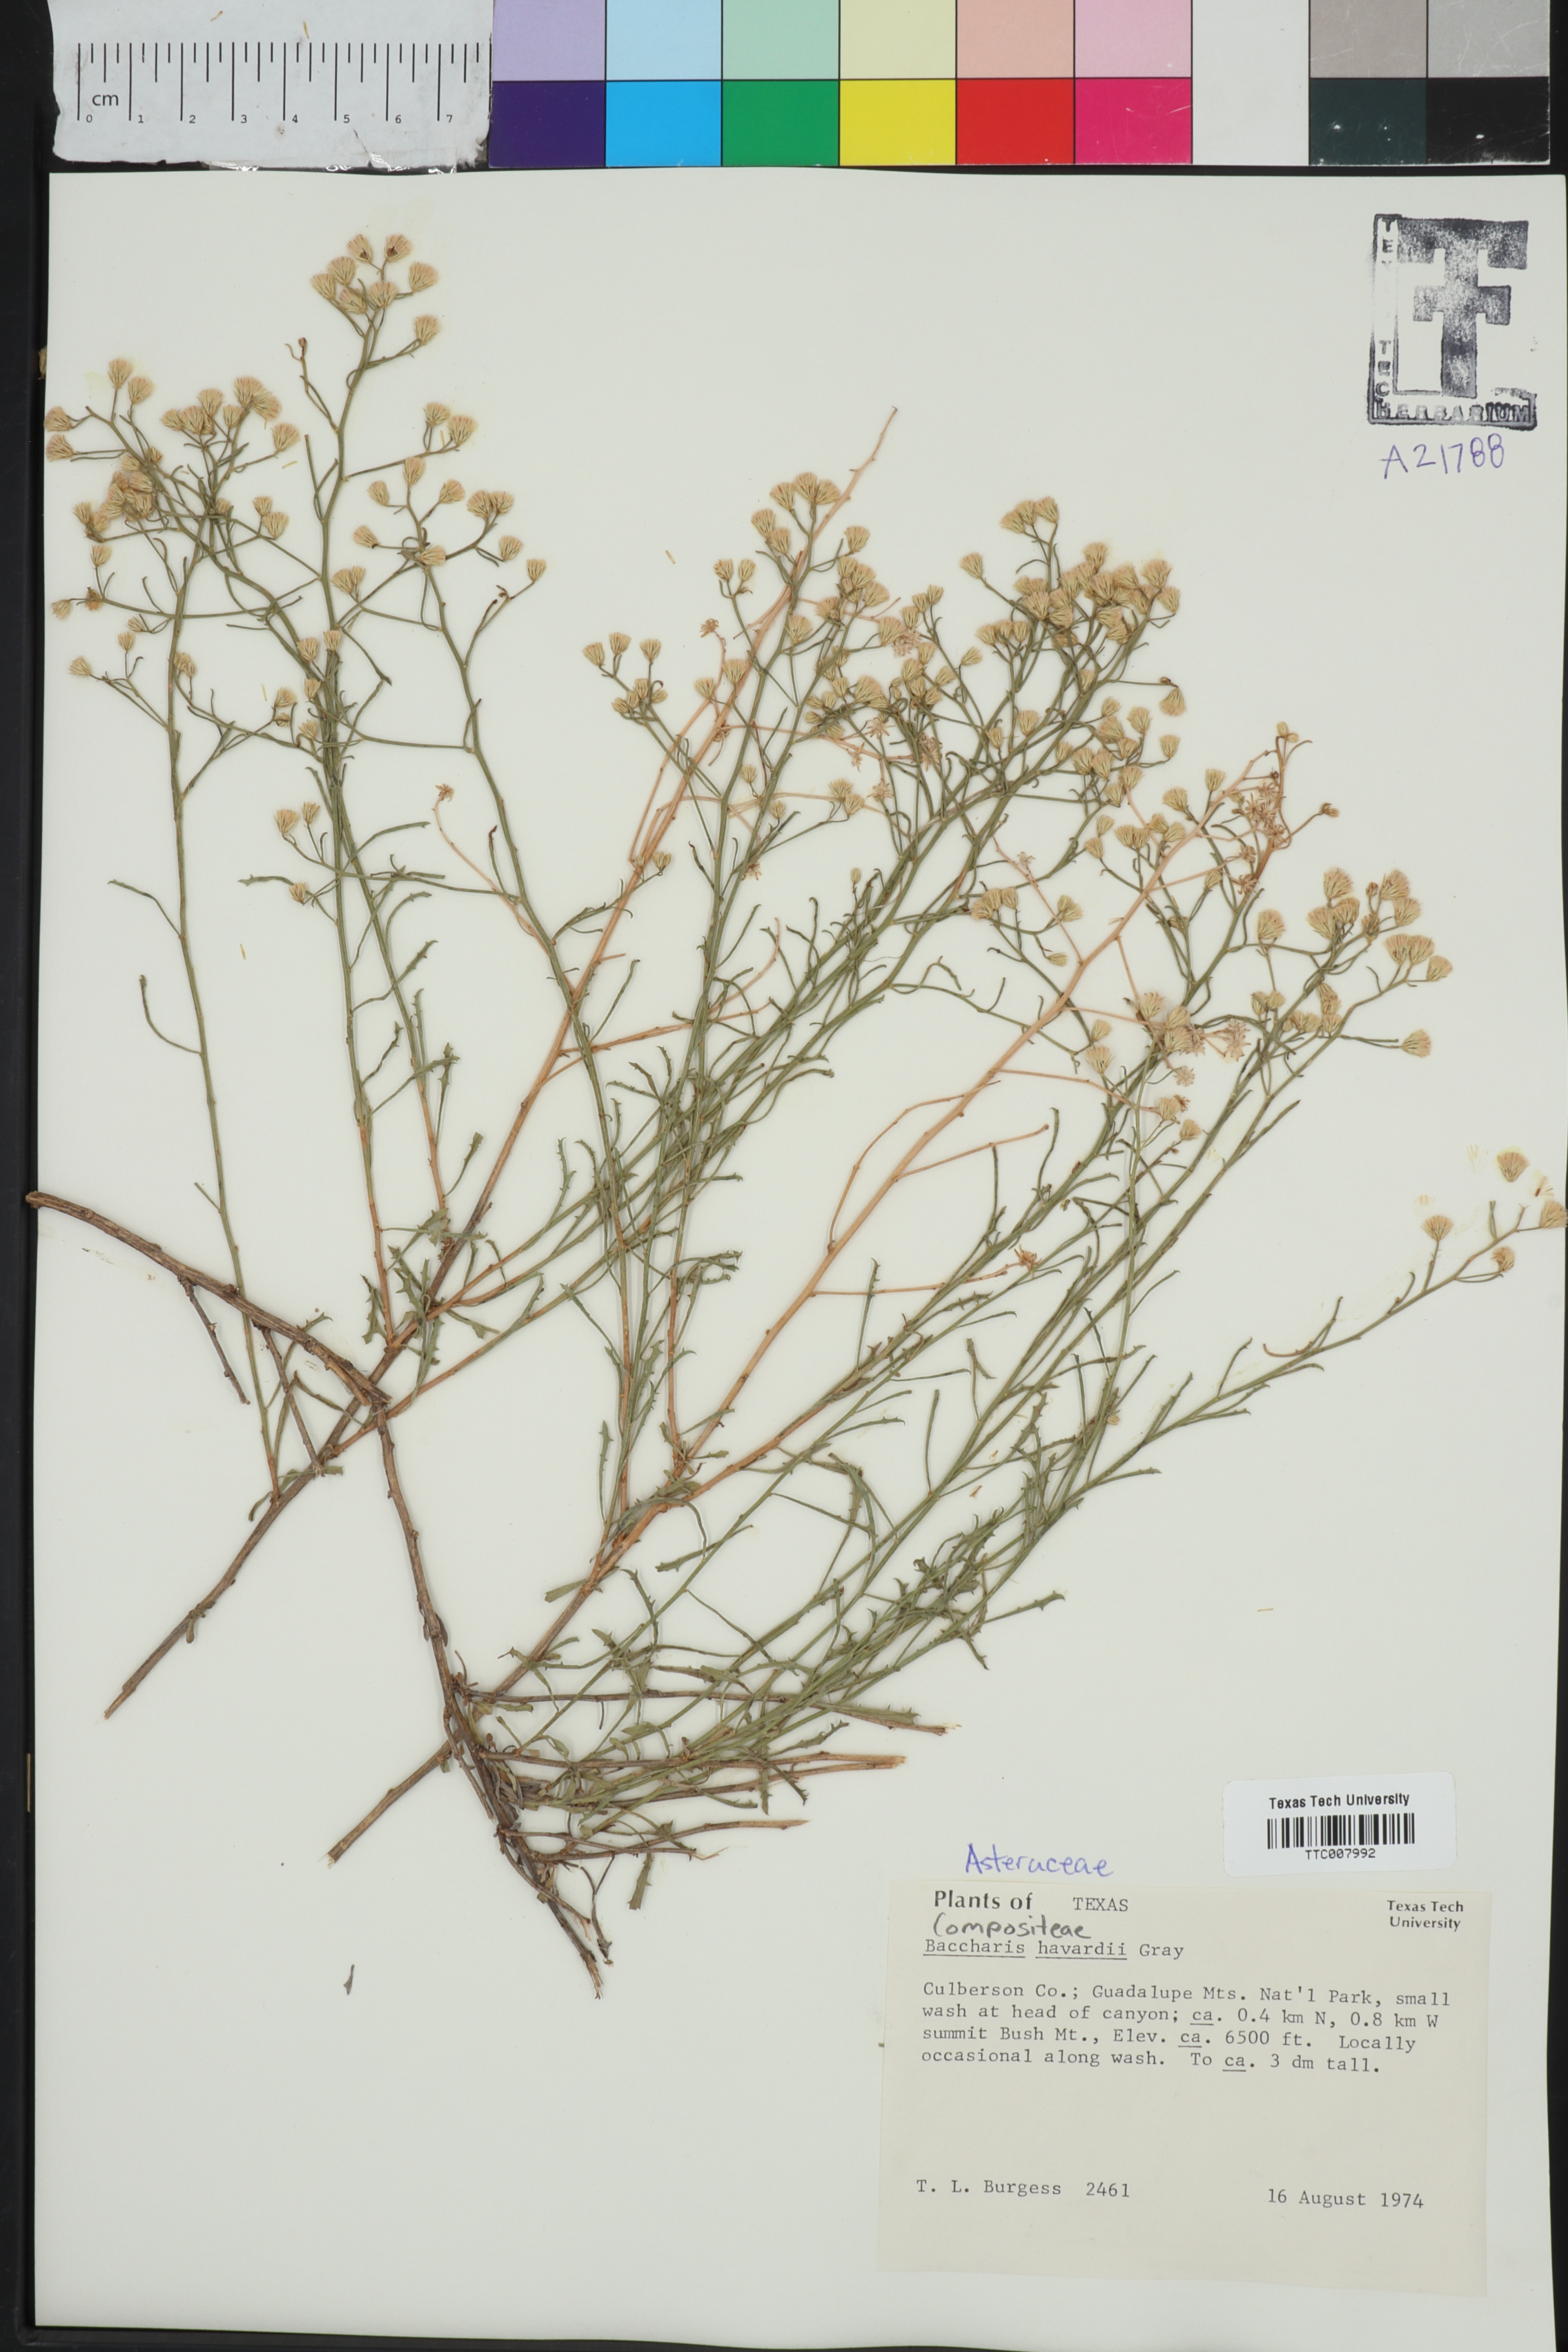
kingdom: Plantae
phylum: Tracheophyta
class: Magnoliopsida
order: Asterales
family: Asteraceae
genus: Baccharis
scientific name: Baccharis havardii
